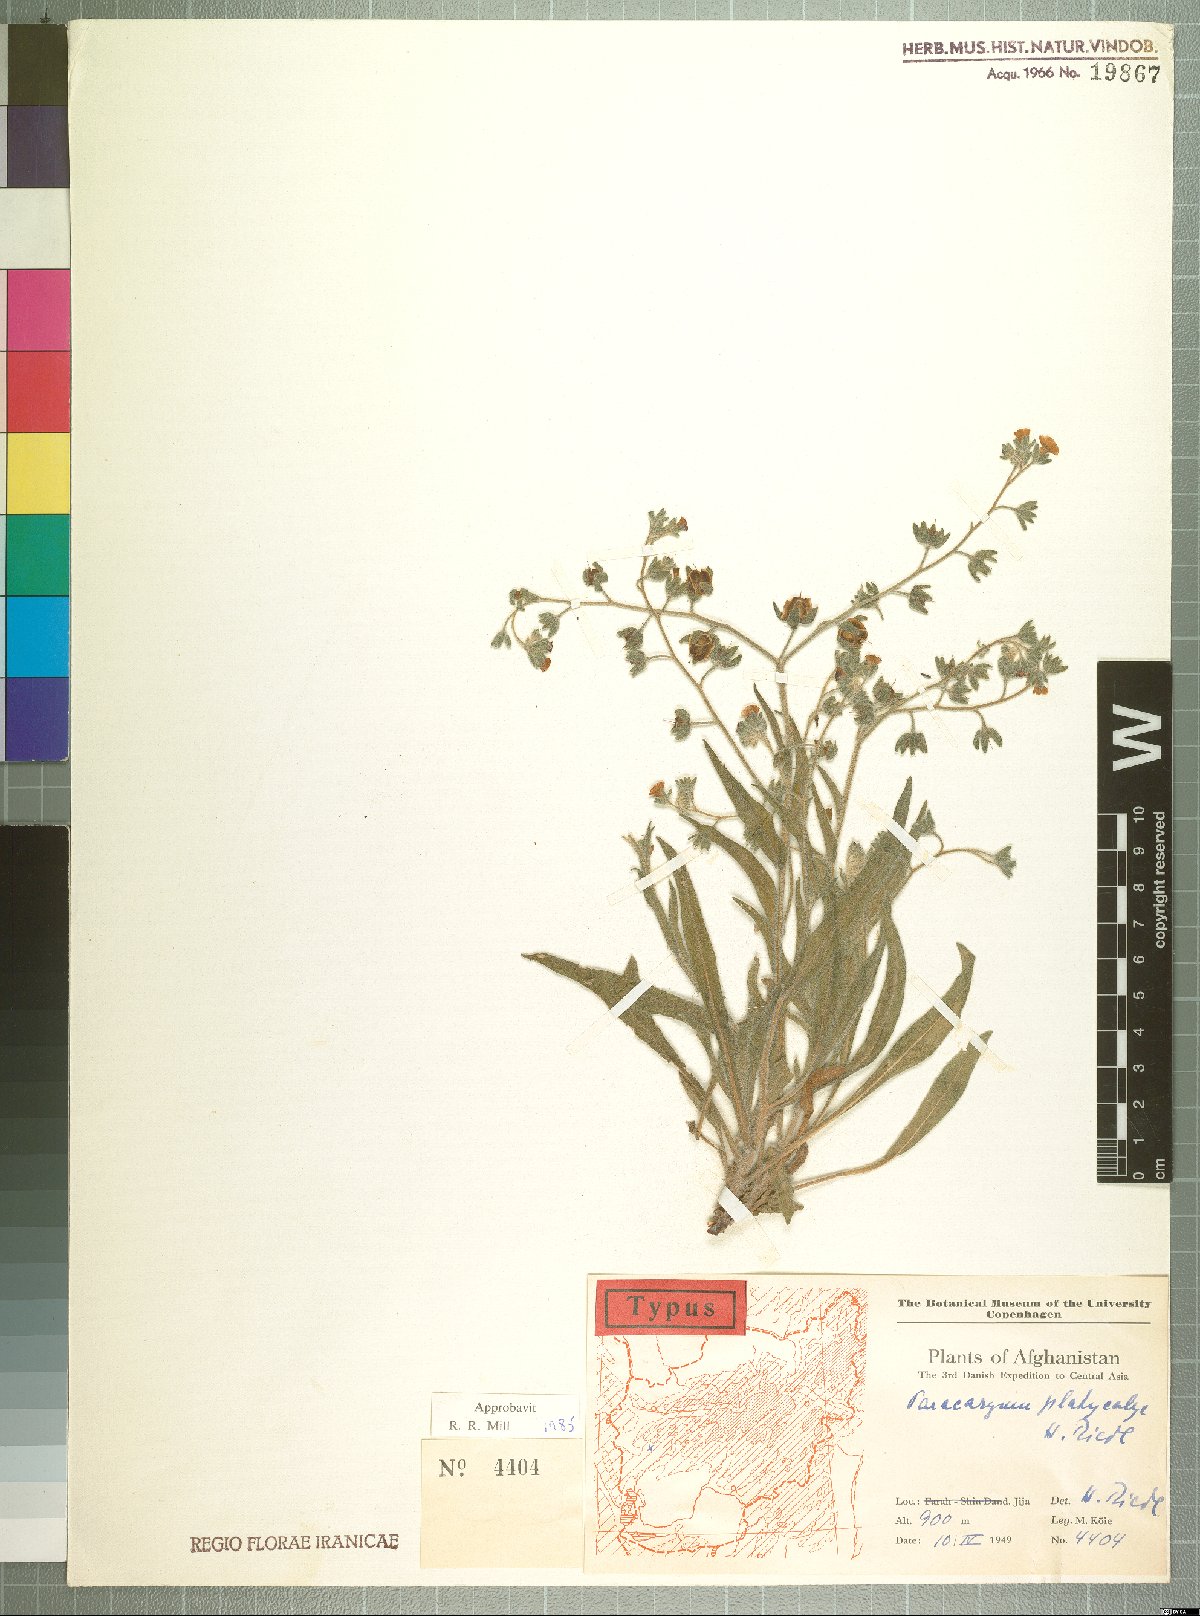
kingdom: Plantae
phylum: Tracheophyta
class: Magnoliopsida
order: Boraginales
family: Boraginaceae
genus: Paracaryum
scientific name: Paracaryum platycalyx
